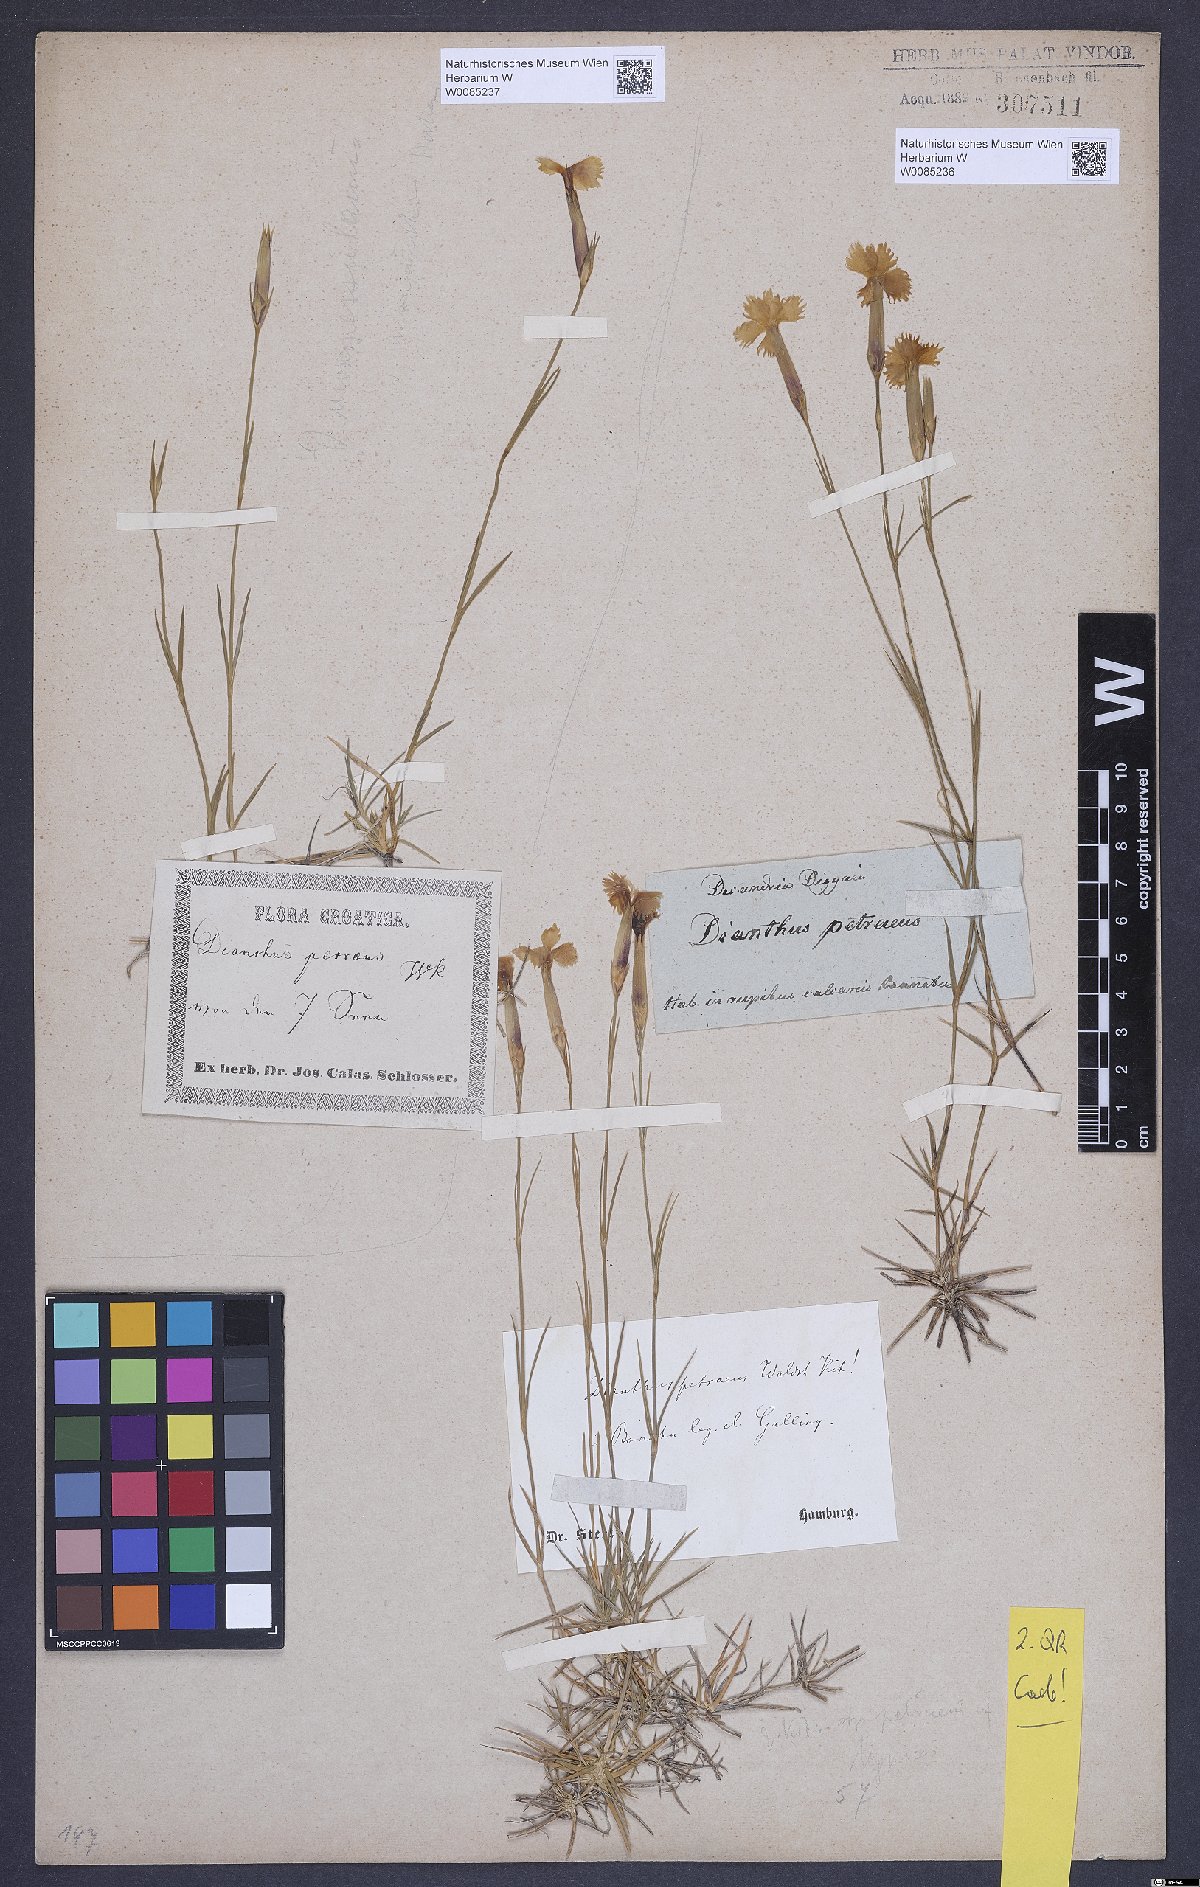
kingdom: Plantae
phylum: Tracheophyta
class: Magnoliopsida
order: Caryophyllales
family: Caryophyllaceae
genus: Dianthus
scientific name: Dianthus petraeus
